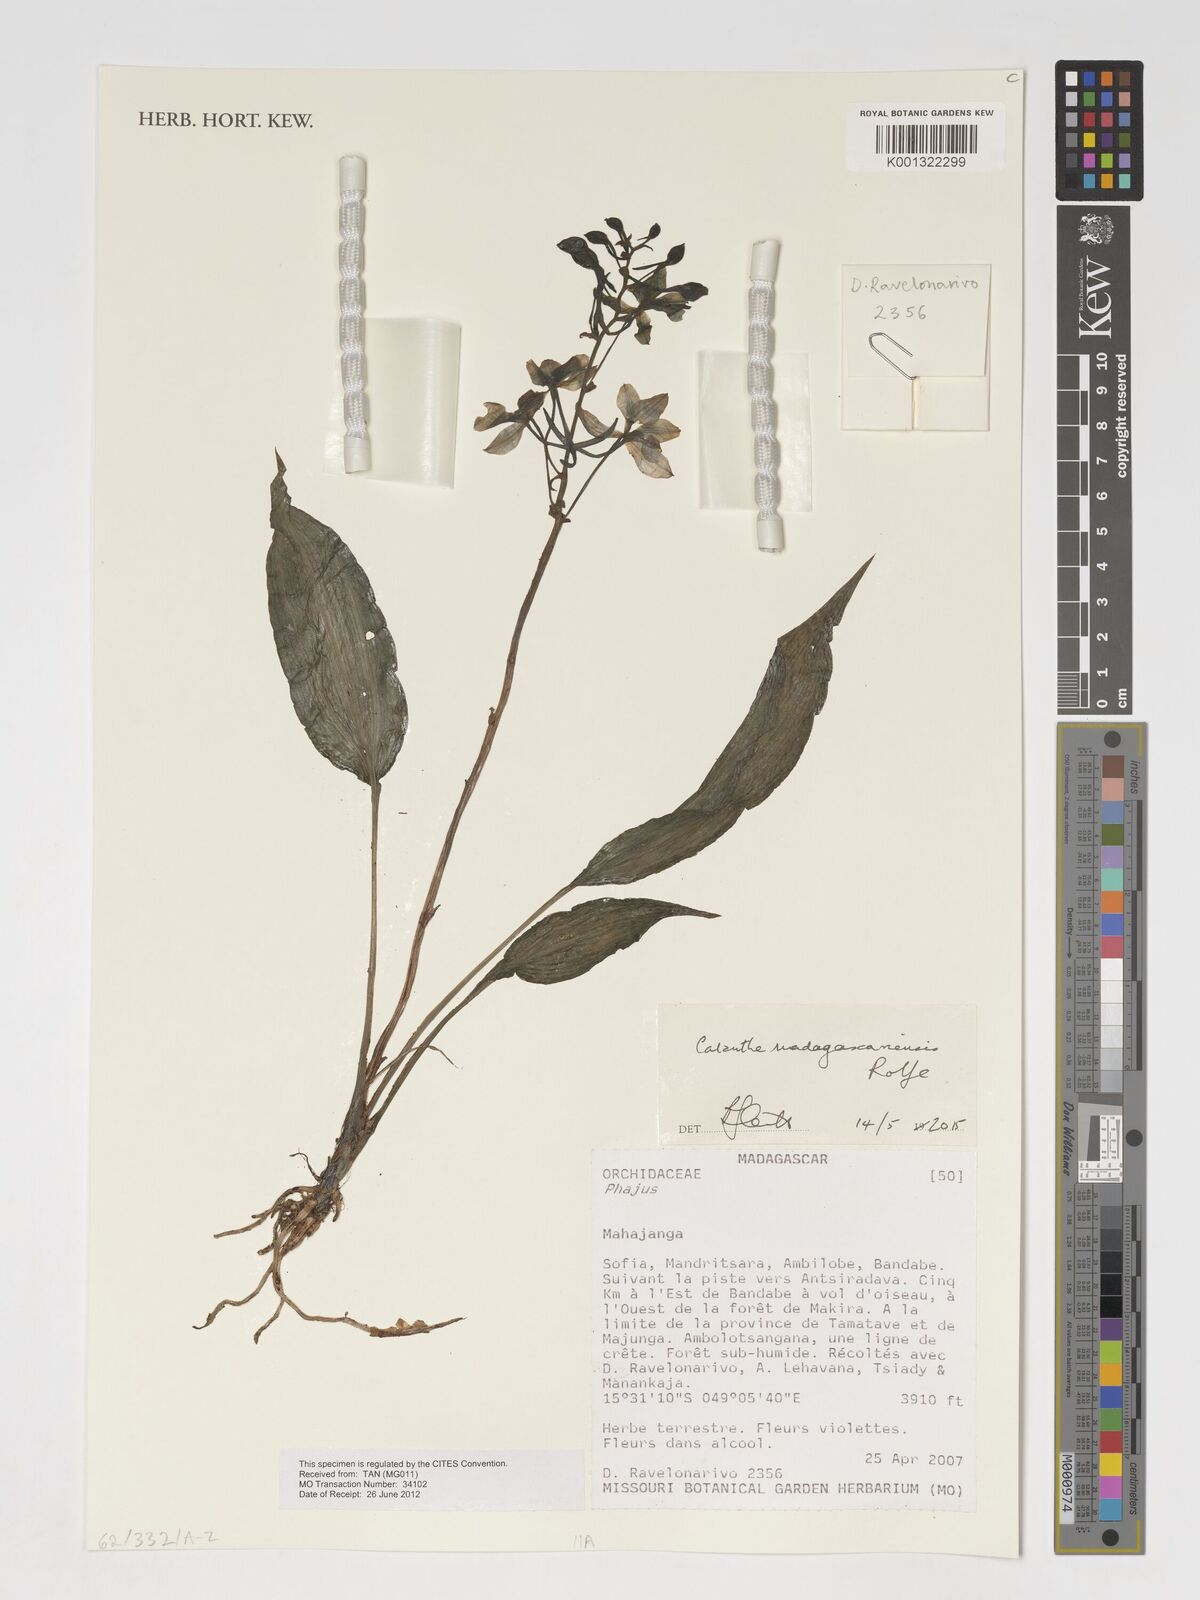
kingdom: Plantae
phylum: Tracheophyta
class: Liliopsida
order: Asparagales
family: Orchidaceae
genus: Calanthe
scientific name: Calanthe
